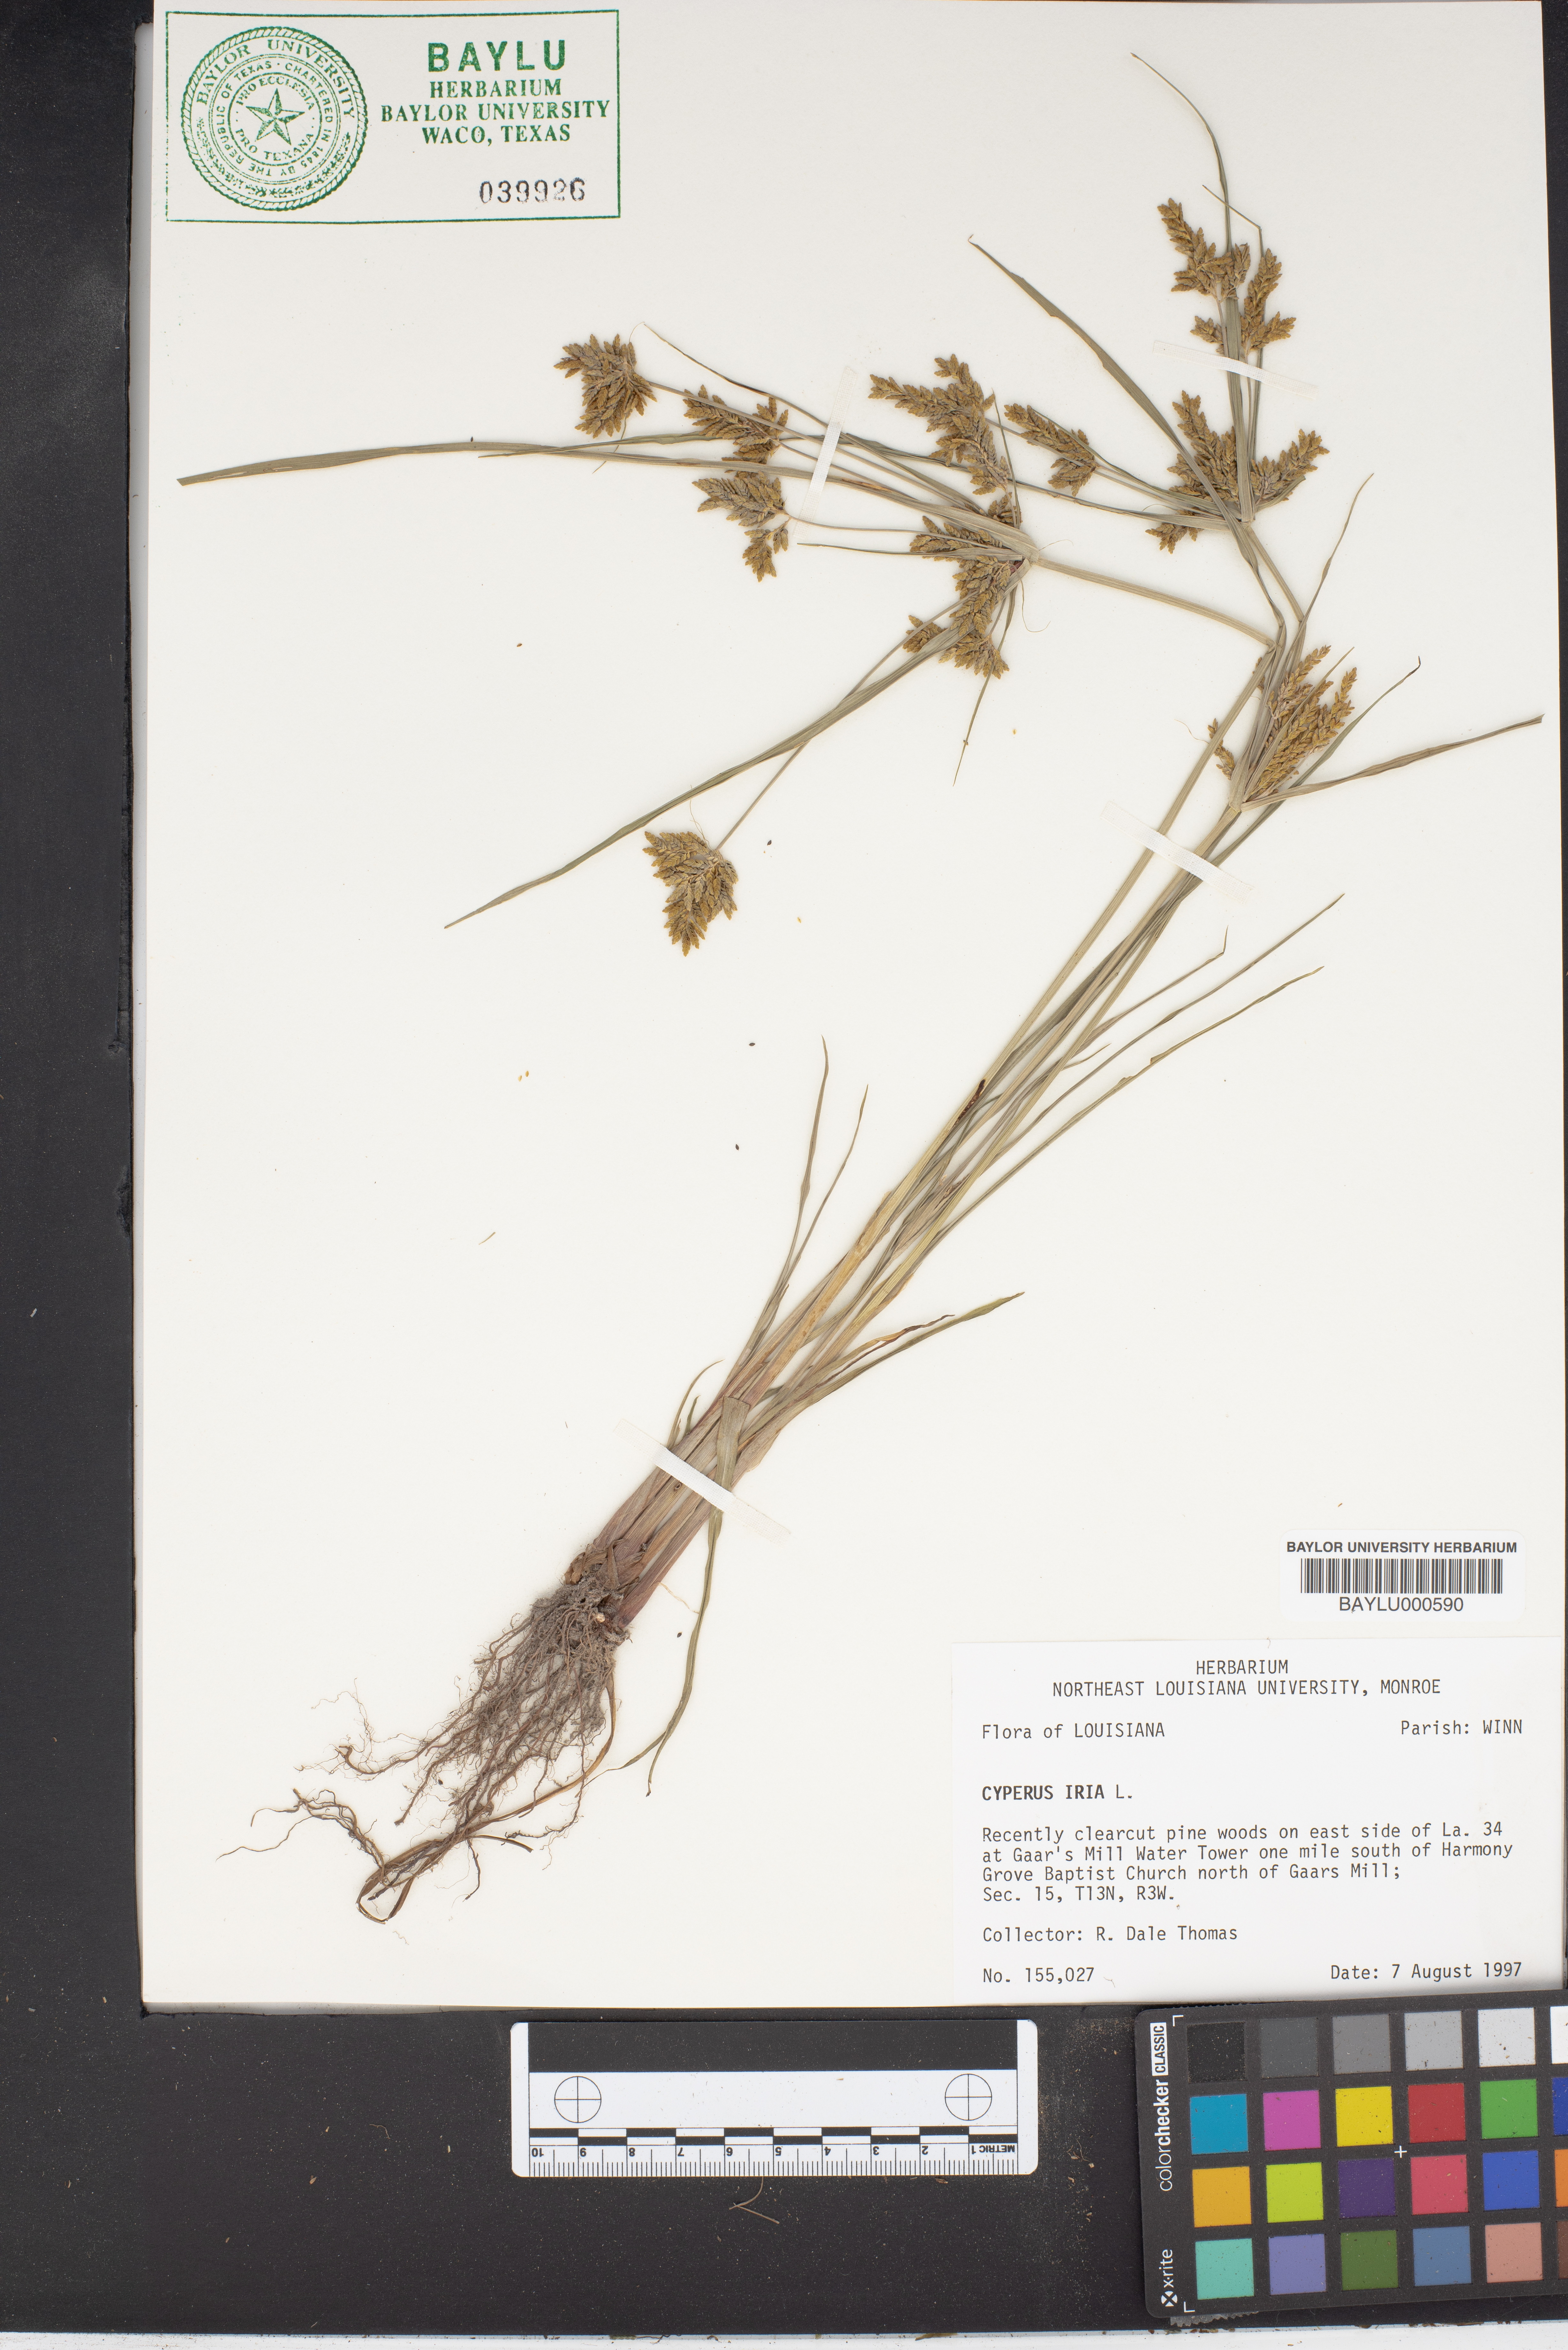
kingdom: Plantae
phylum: Tracheophyta
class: Liliopsida
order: Poales
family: Cyperaceae
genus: Cyperus
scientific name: Cyperus iria
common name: Ricefield flatsedge
